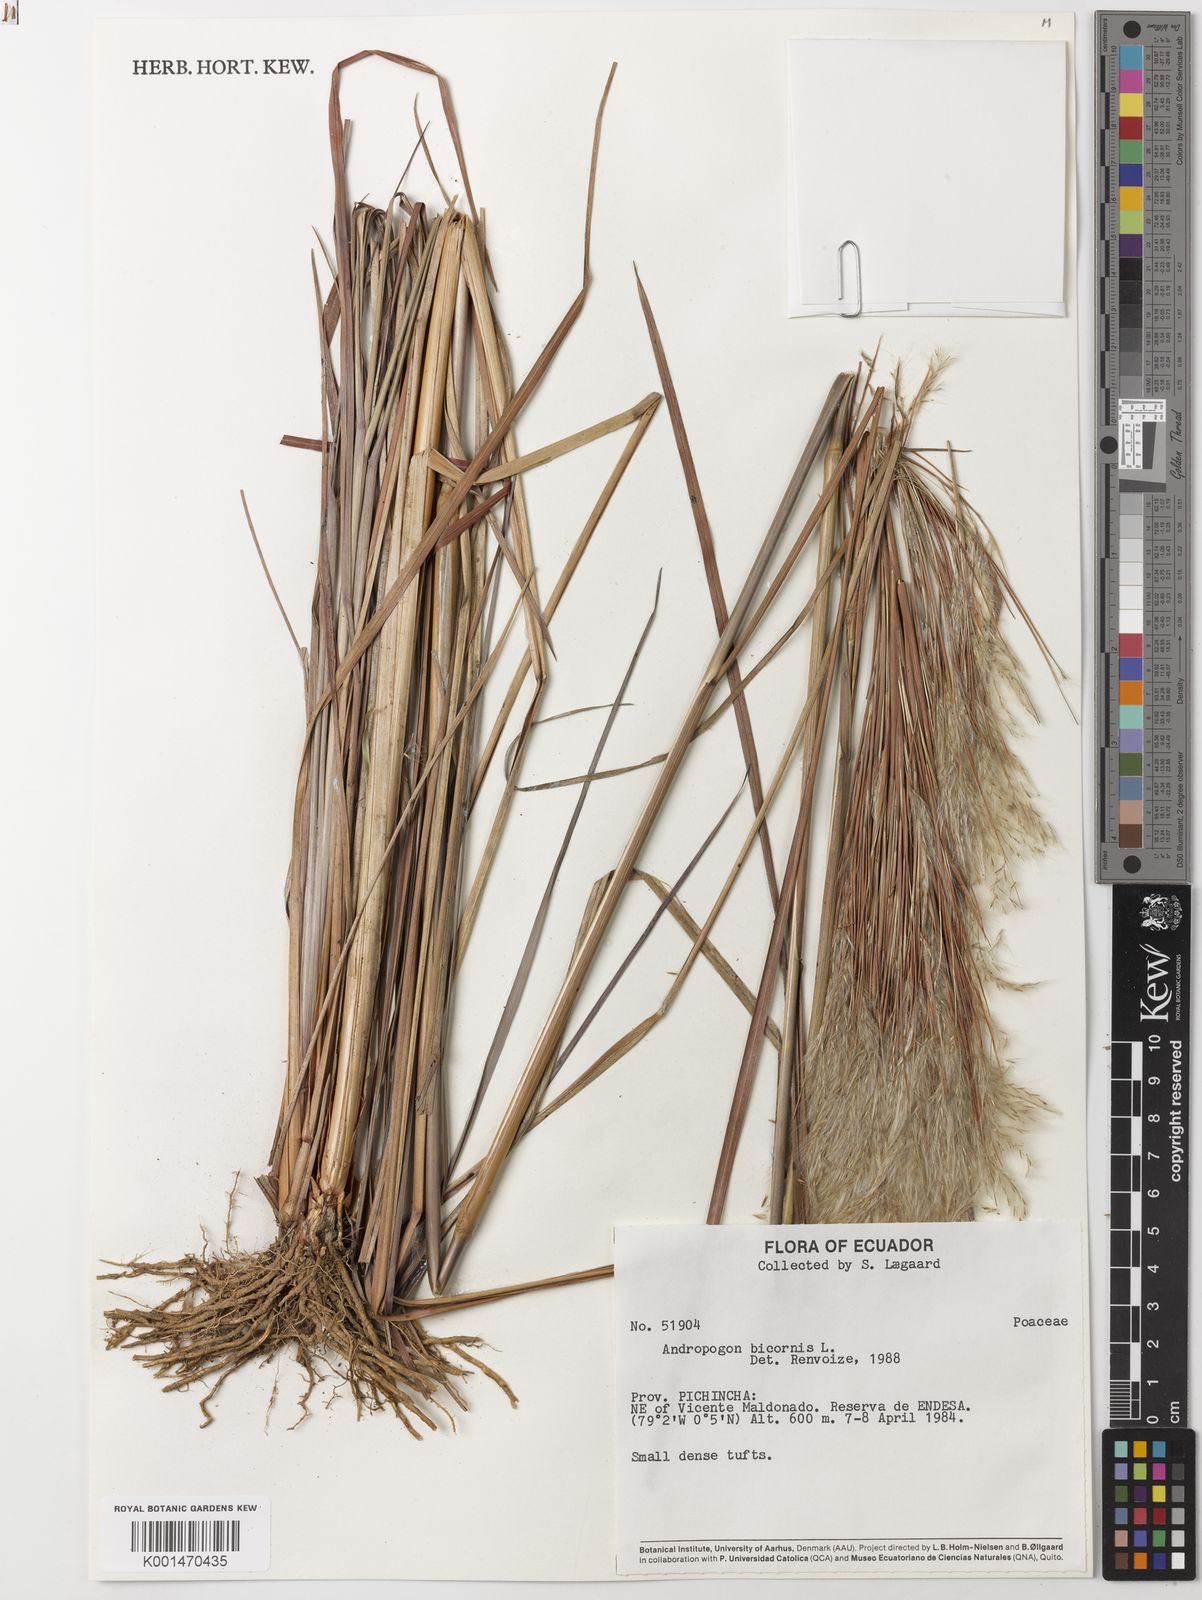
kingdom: Plantae
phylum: Tracheophyta
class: Liliopsida
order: Poales
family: Poaceae
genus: Andropogon
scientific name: Andropogon bicornis
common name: West indian foxtail grass
